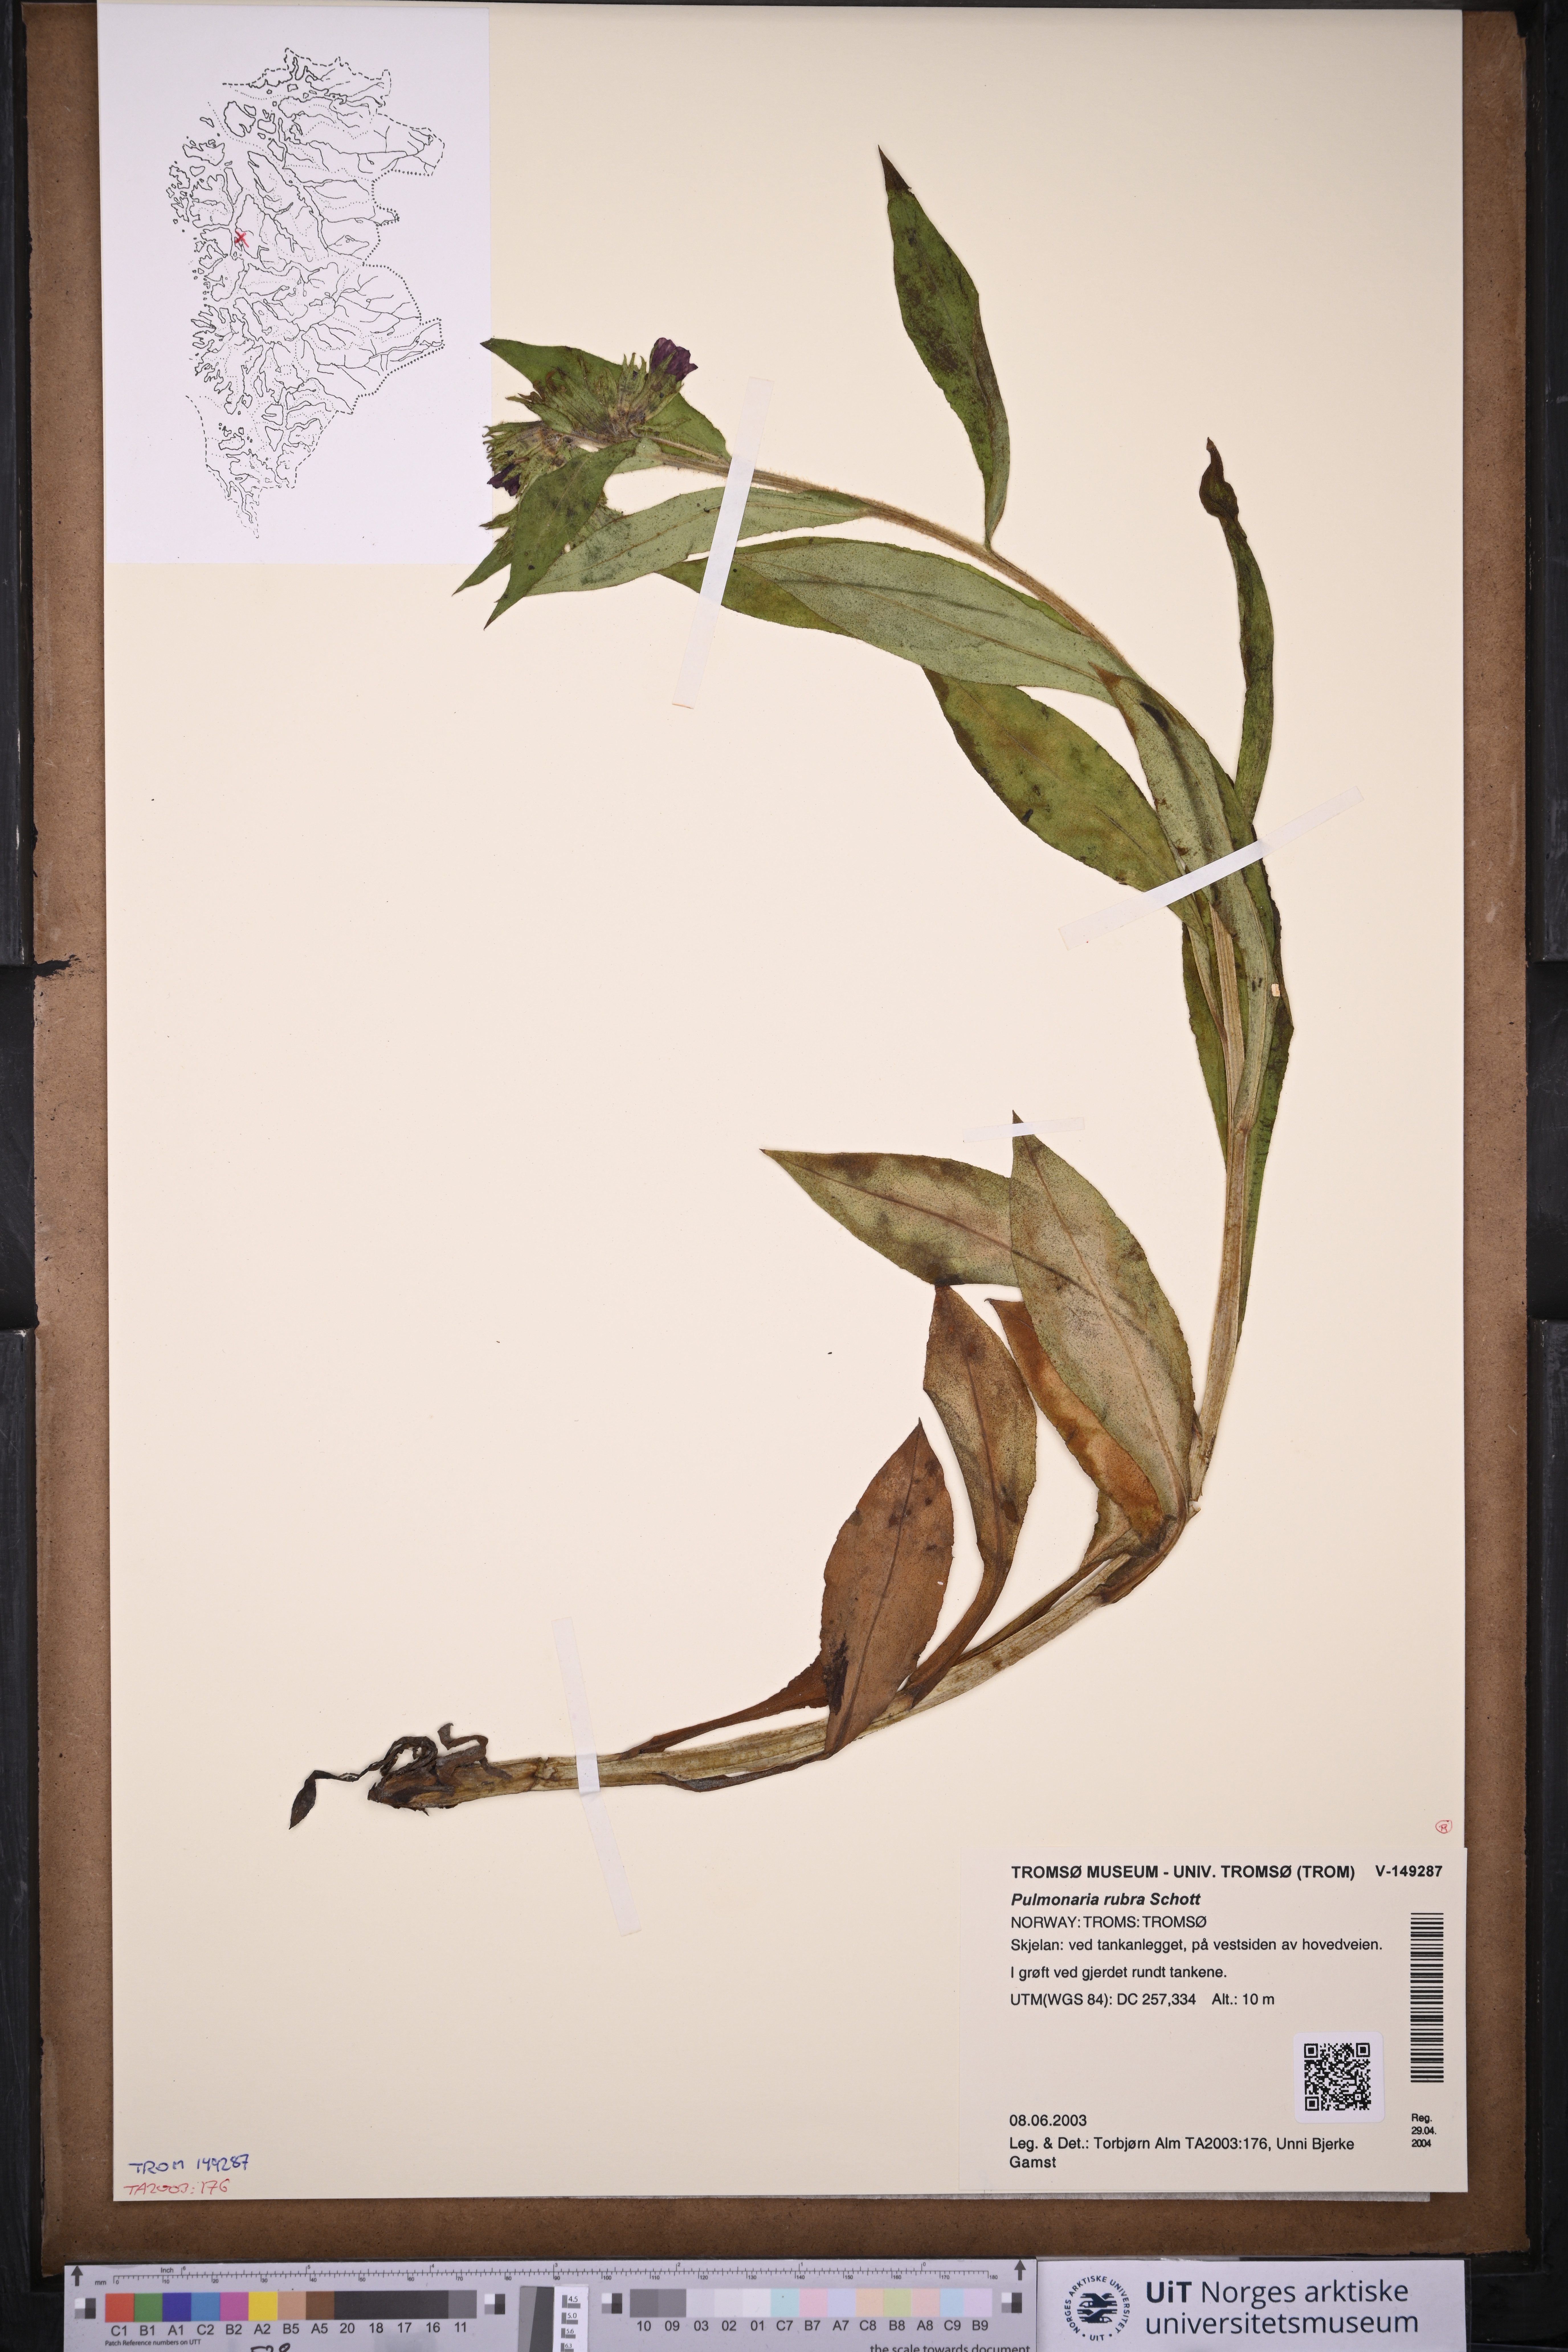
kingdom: Plantae
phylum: Tracheophyta
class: Magnoliopsida
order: Boraginales
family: Boraginaceae
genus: Pulmonaria
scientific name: Pulmonaria rubra
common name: Red lungwort
